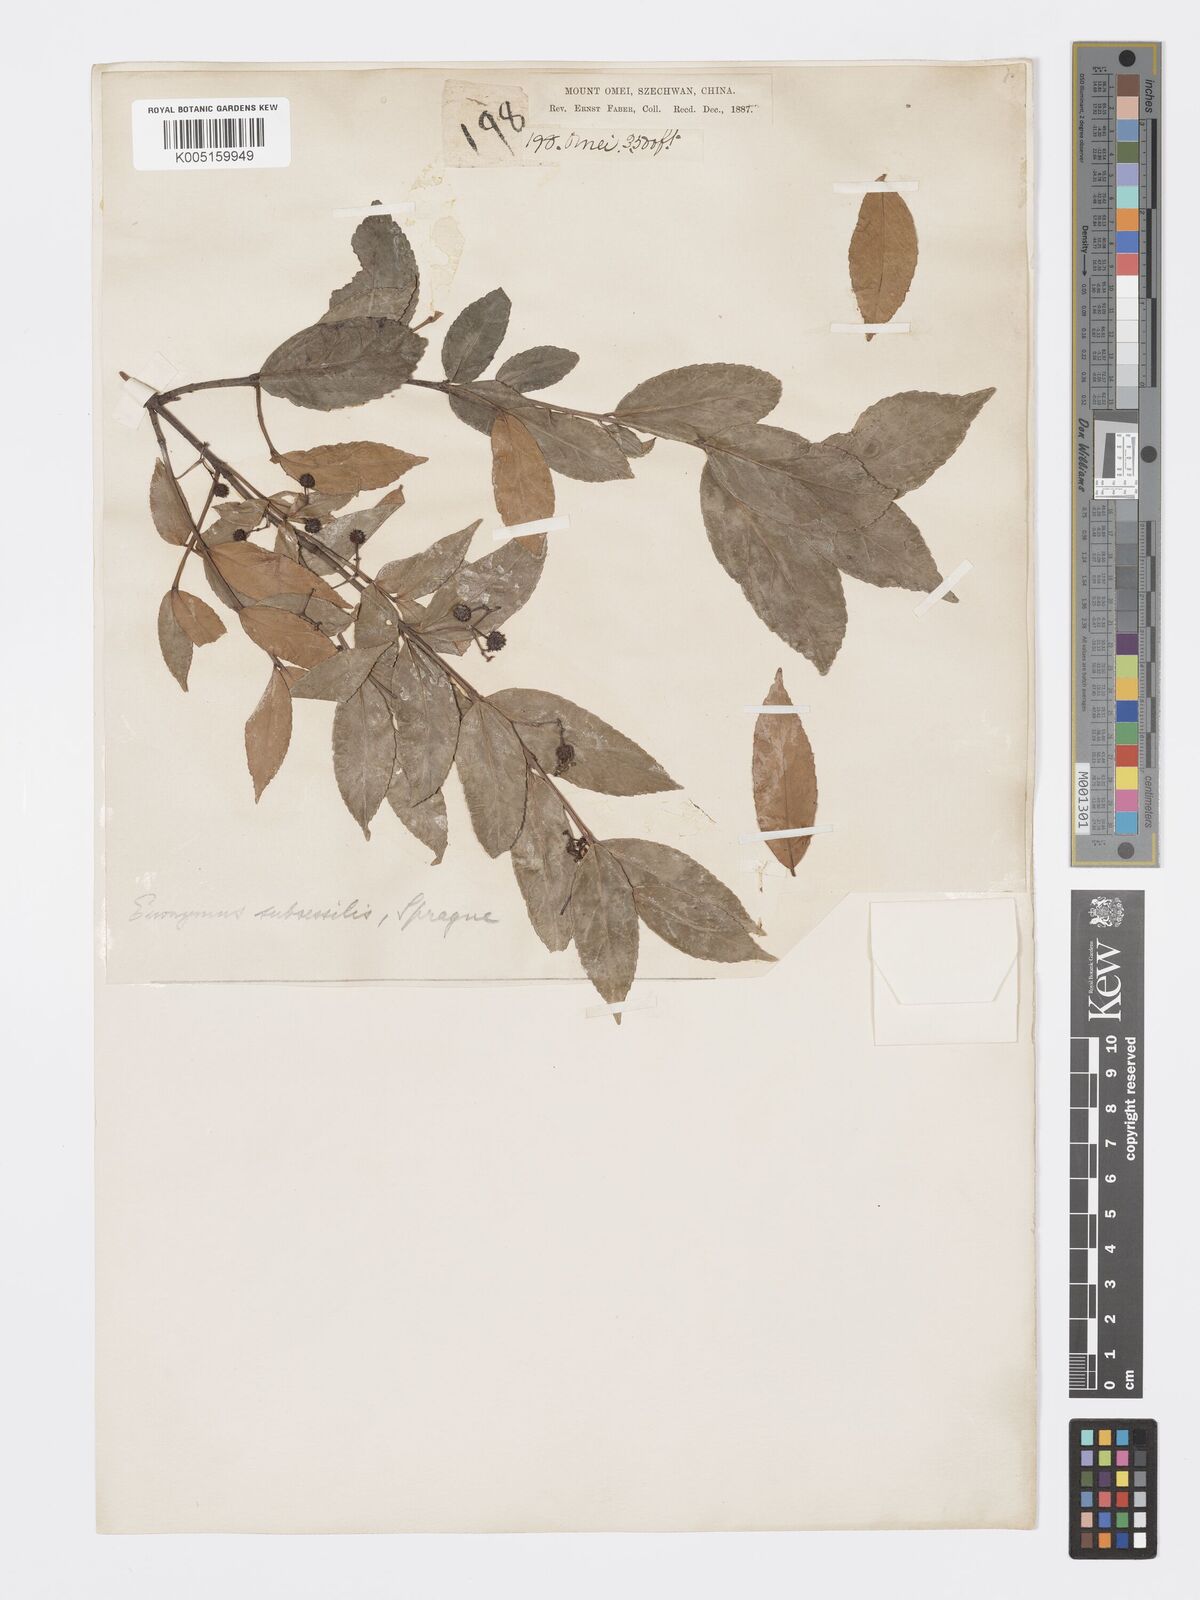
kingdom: Plantae
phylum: Tracheophyta
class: Magnoliopsida
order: Celastrales
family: Celastraceae
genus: Euonymus
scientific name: Euonymus echinatus
